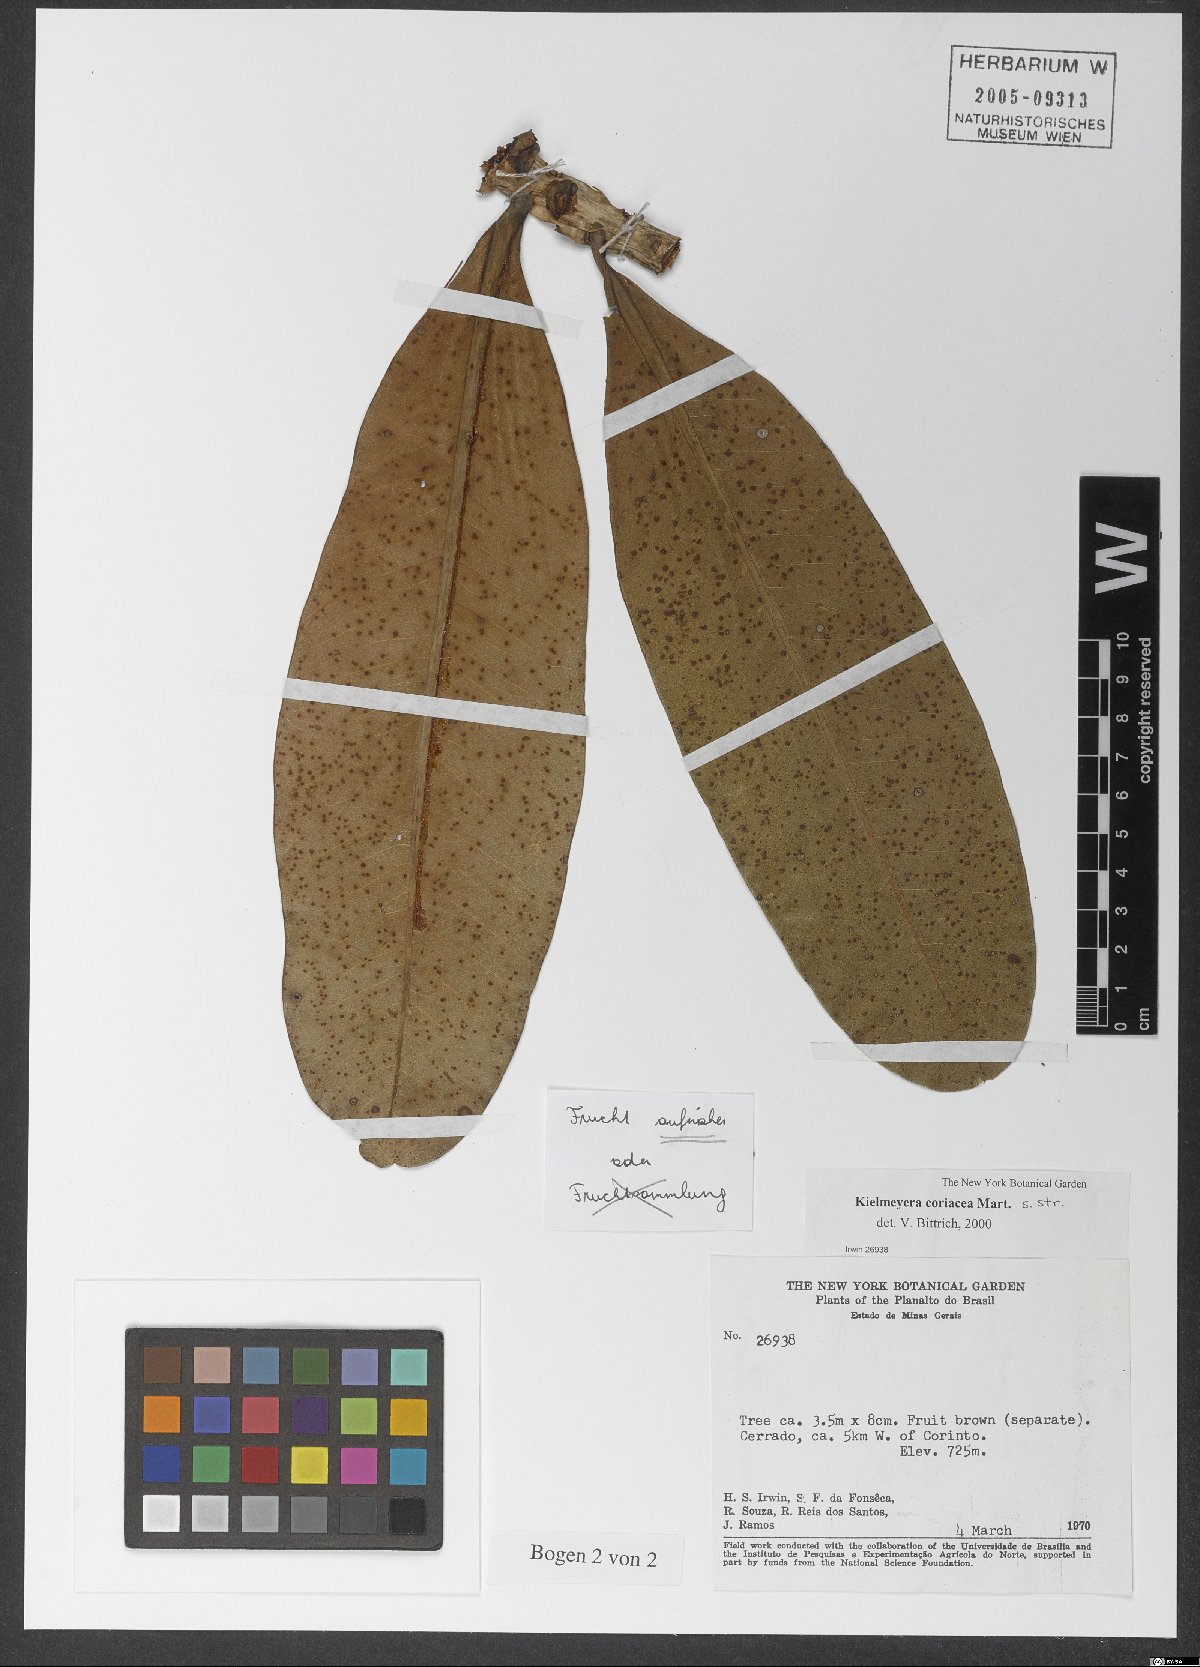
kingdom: Plantae
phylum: Tracheophyta
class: Magnoliopsida
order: Malpighiales
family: Calophyllaceae
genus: Kielmeyera
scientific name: Kielmeyera coriacea
